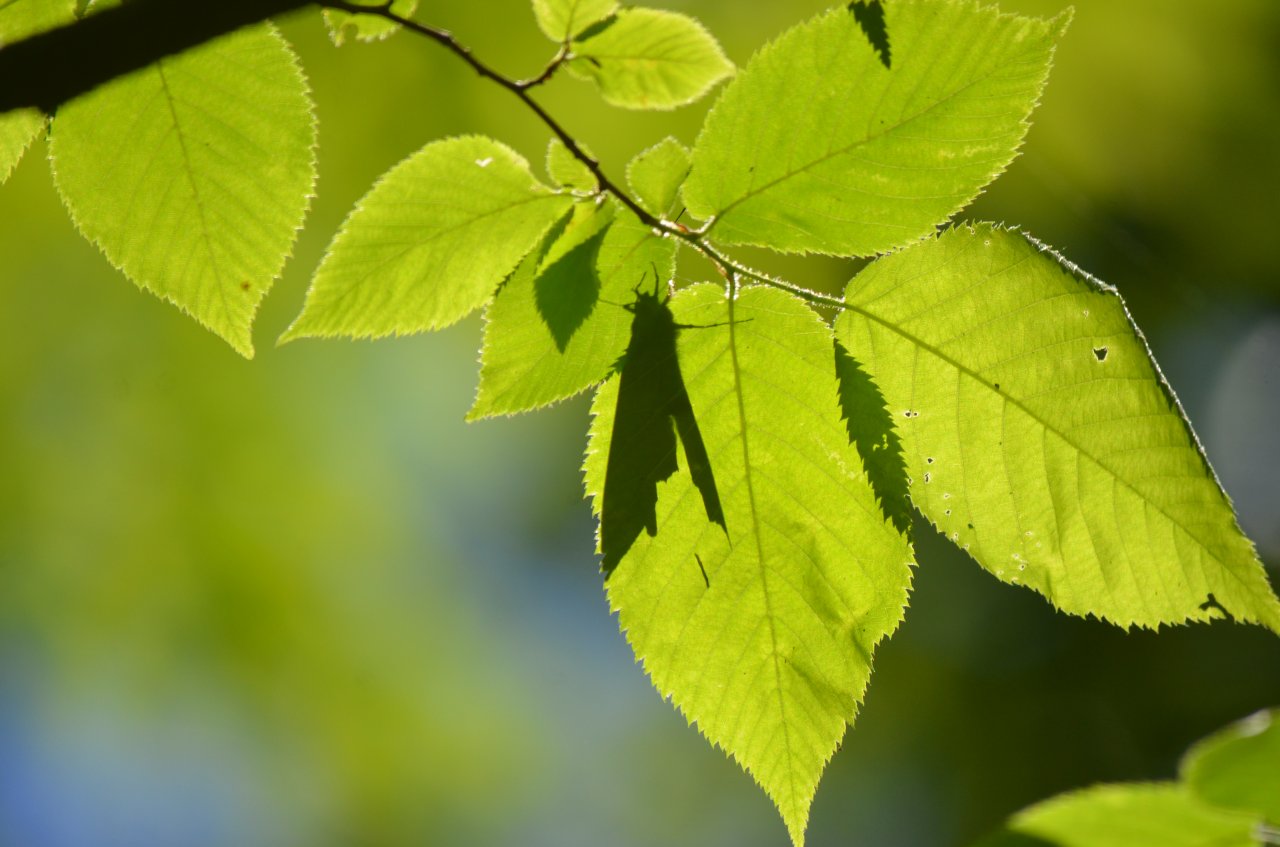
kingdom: Animalia
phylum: Arthropoda
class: Insecta
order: Lepidoptera
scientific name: Lepidoptera
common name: Butterflies
